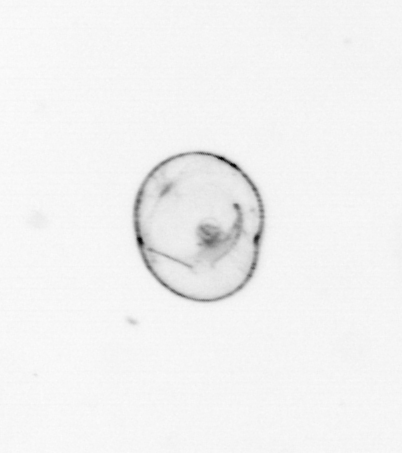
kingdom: Chromista
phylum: Myzozoa
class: Dinophyceae
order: Noctilucales
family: Noctilucaceae
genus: Noctiluca
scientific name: Noctiluca scintillans
